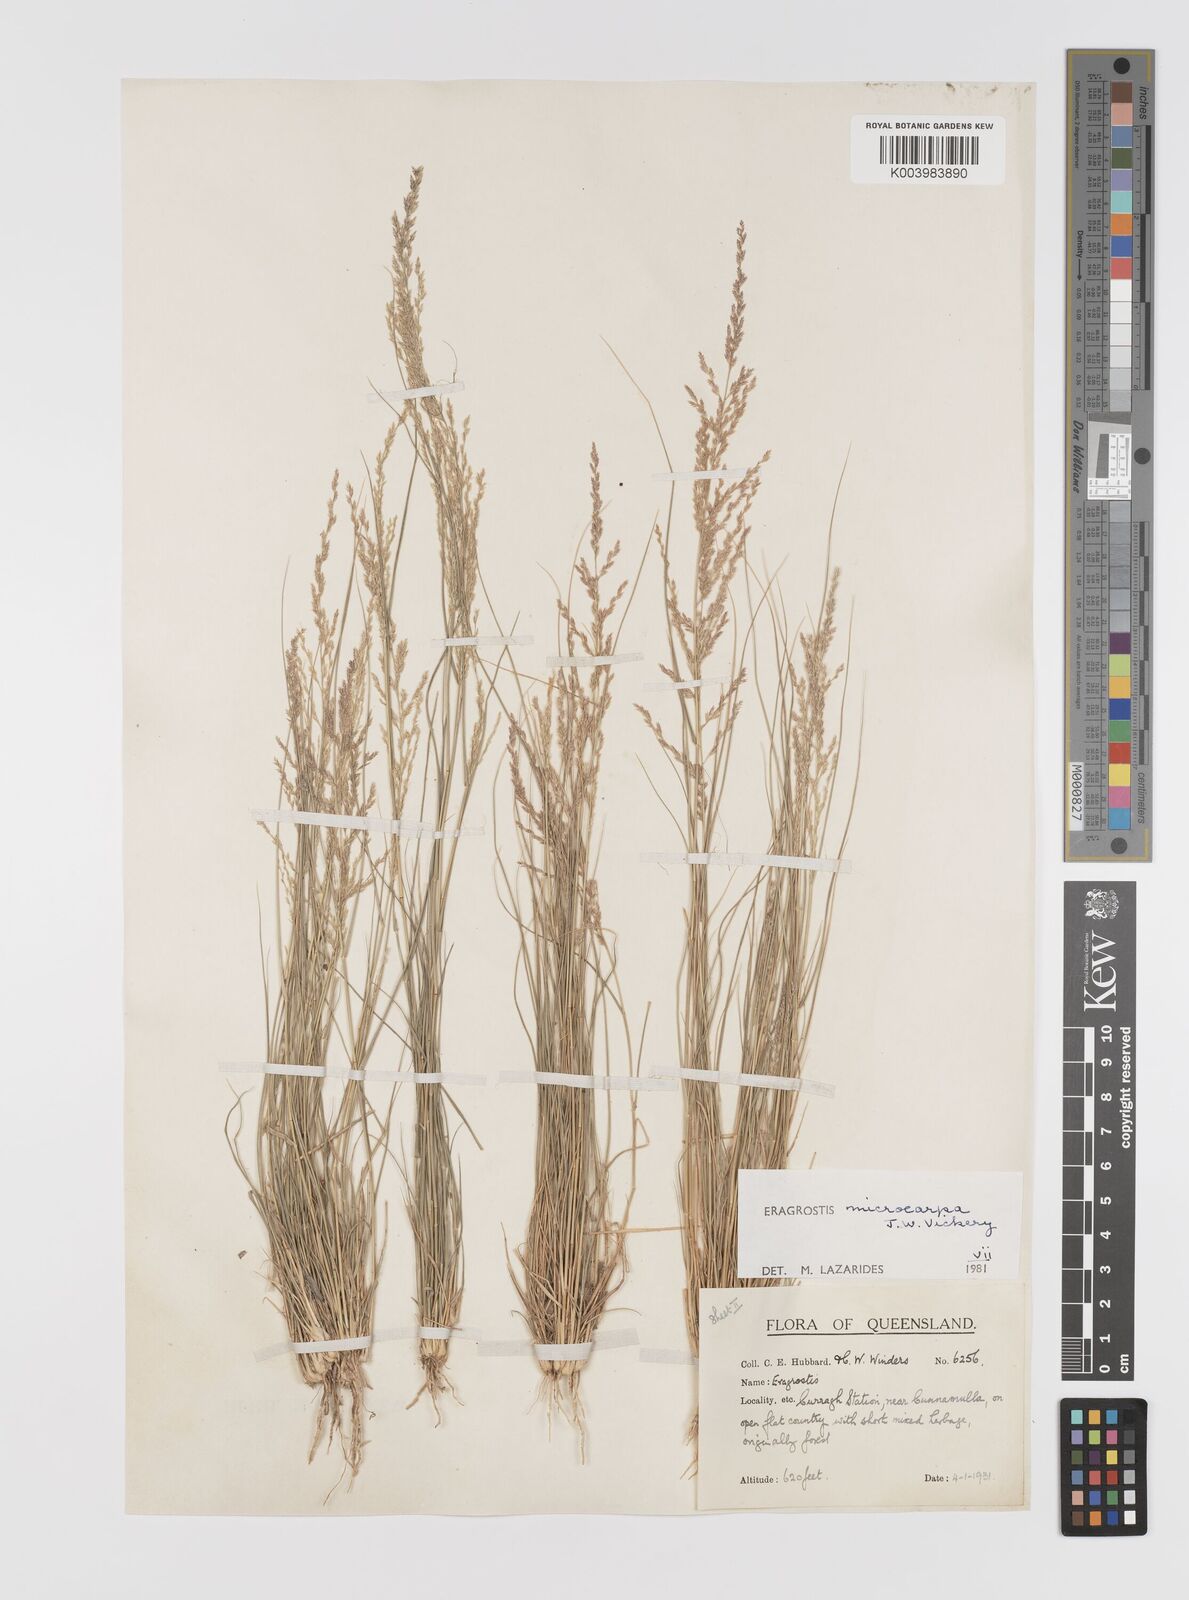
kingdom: Plantae
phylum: Tracheophyta
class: Liliopsida
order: Poales
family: Poaceae
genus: Eragrostis
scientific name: Eragrostis microcarpa
